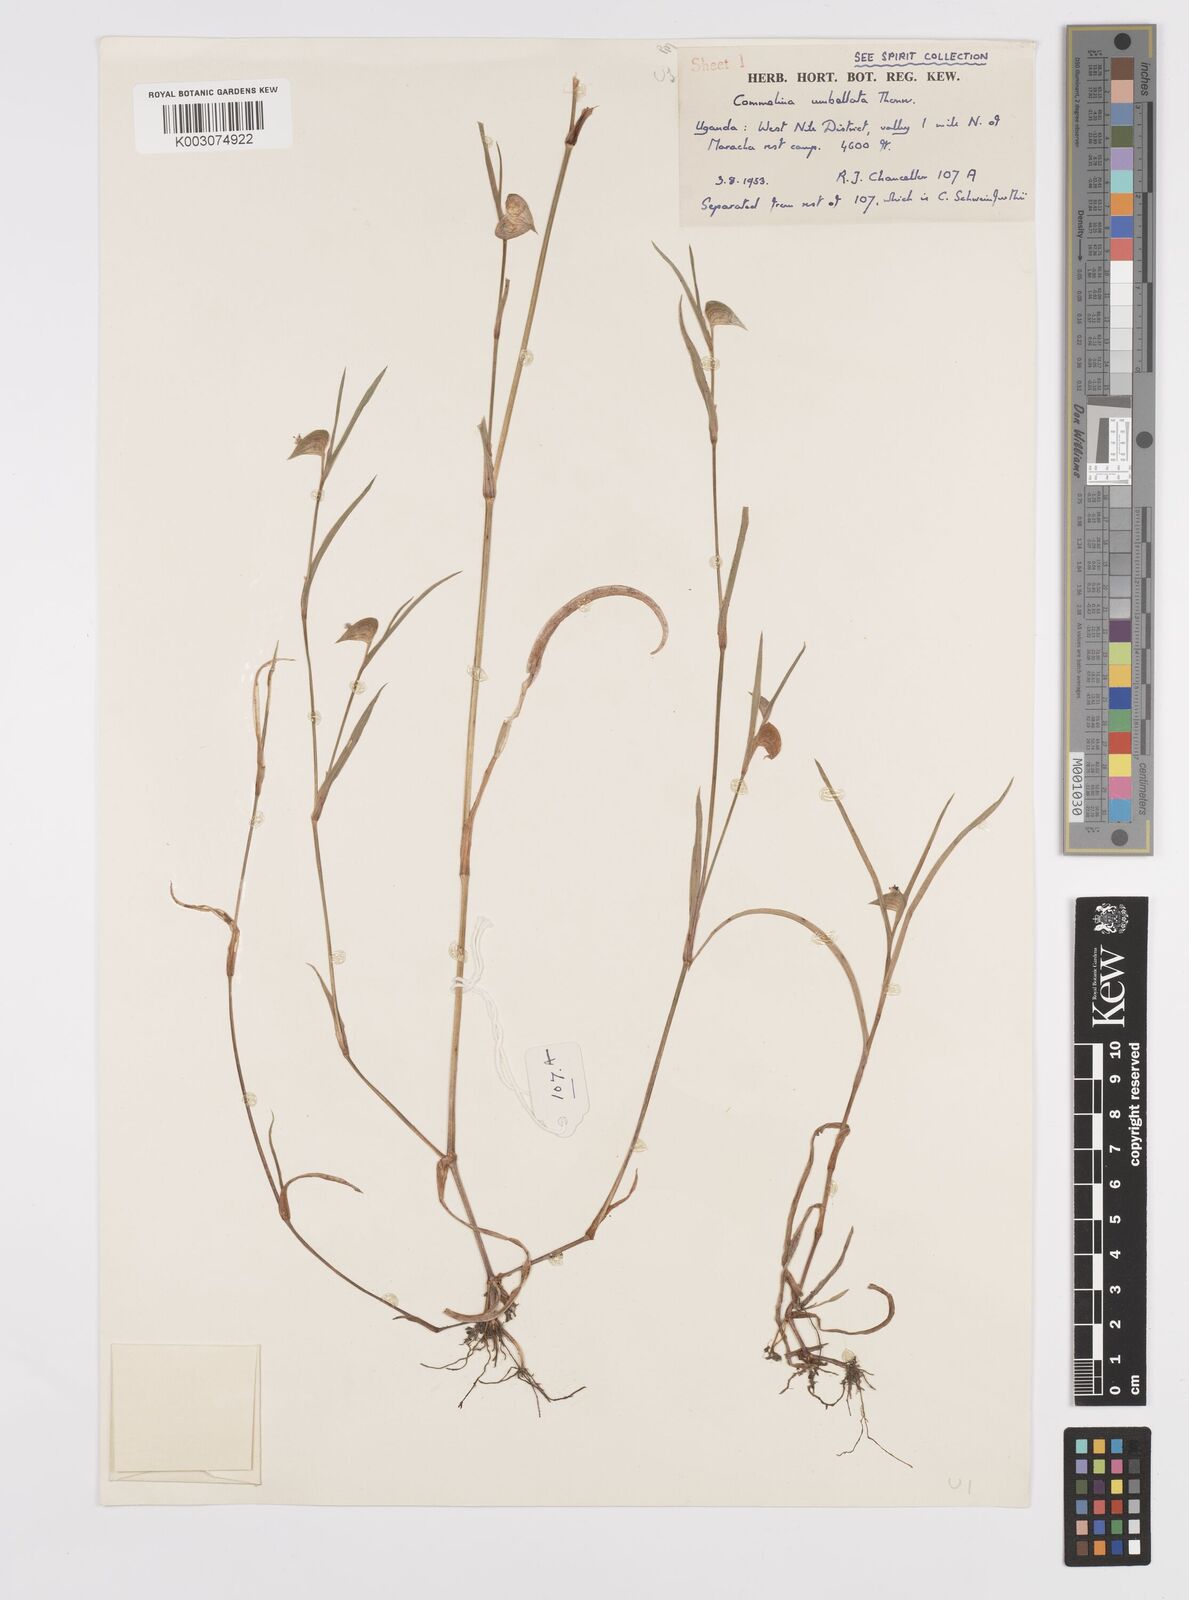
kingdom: Plantae
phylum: Tracheophyta
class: Liliopsida
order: Commelinales
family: Commelinaceae
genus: Commelina
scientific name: Commelina nigritana
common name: African dayflower
